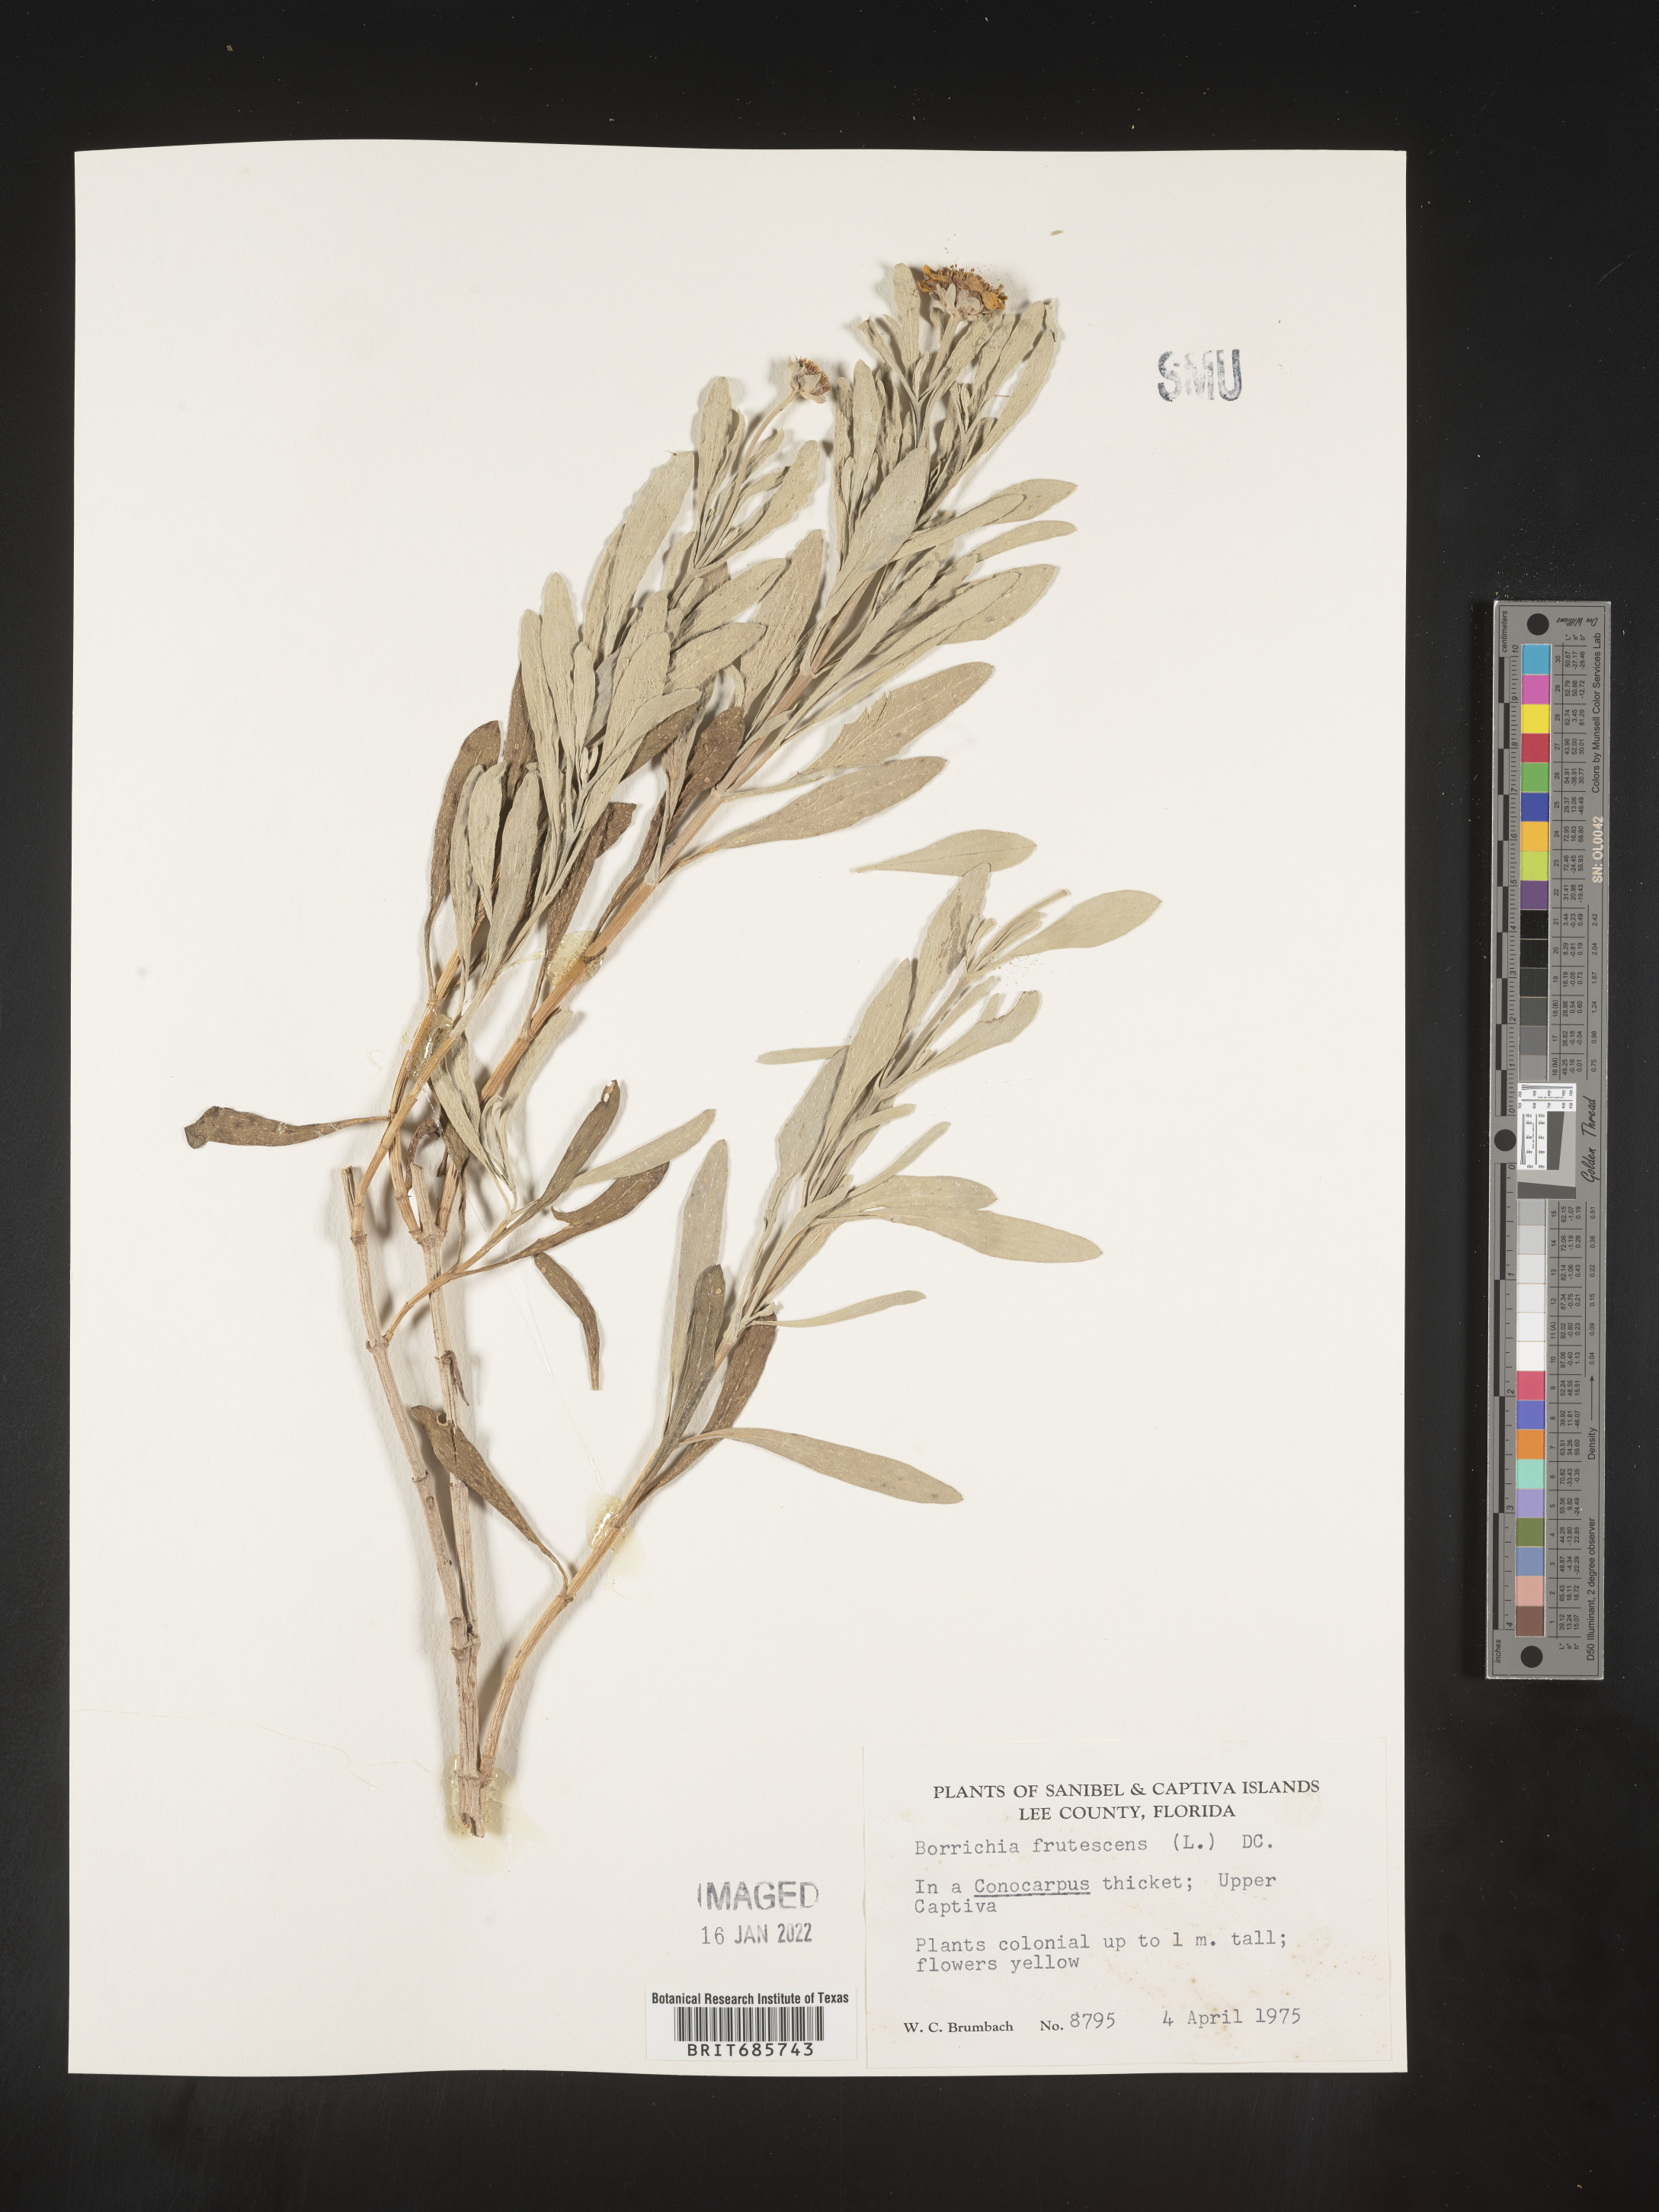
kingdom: Plantae
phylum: Tracheophyta
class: Magnoliopsida
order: Asterales
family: Asteraceae
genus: Borrichia
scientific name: Borrichia frutescens
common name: Sea oxeye
